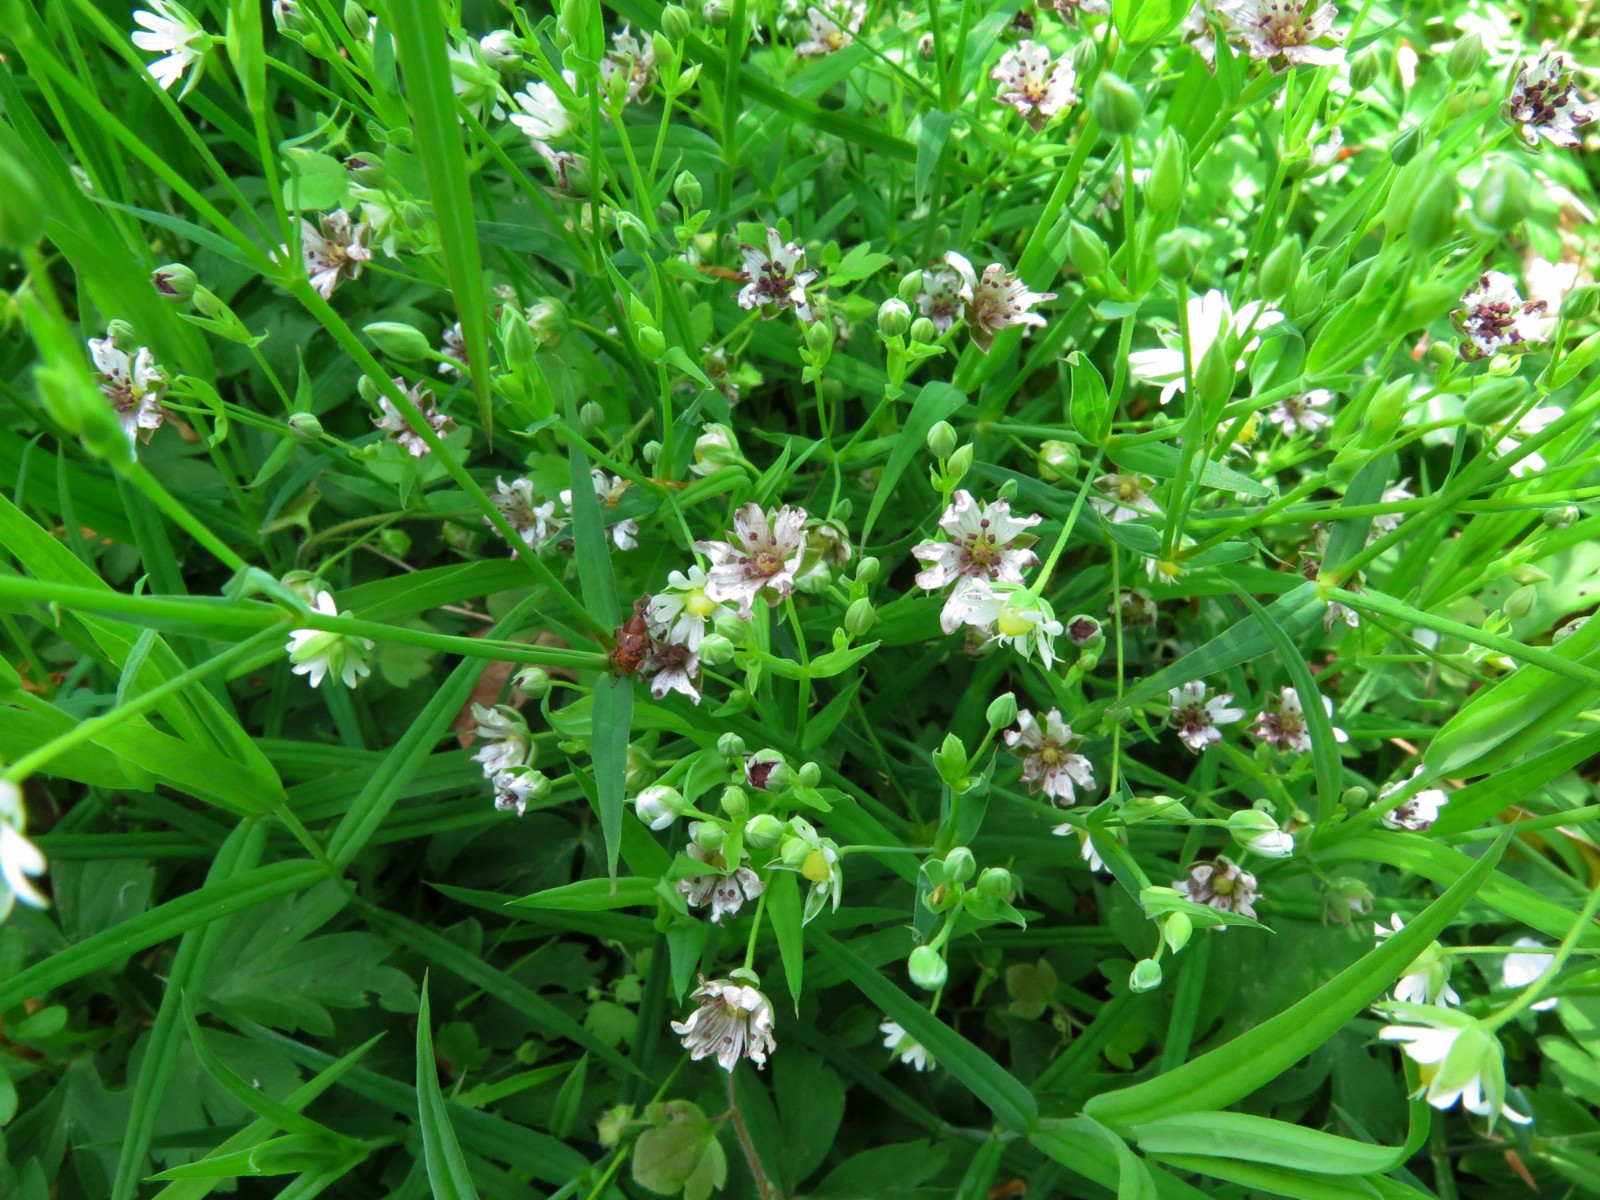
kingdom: Fungi
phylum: Basidiomycota
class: Microbotryomycetes
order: Microbotryales
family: Microbotryaceae
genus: Microbotryum
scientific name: Microbotryum stellariae
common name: fladstjerne-støvbladrust
